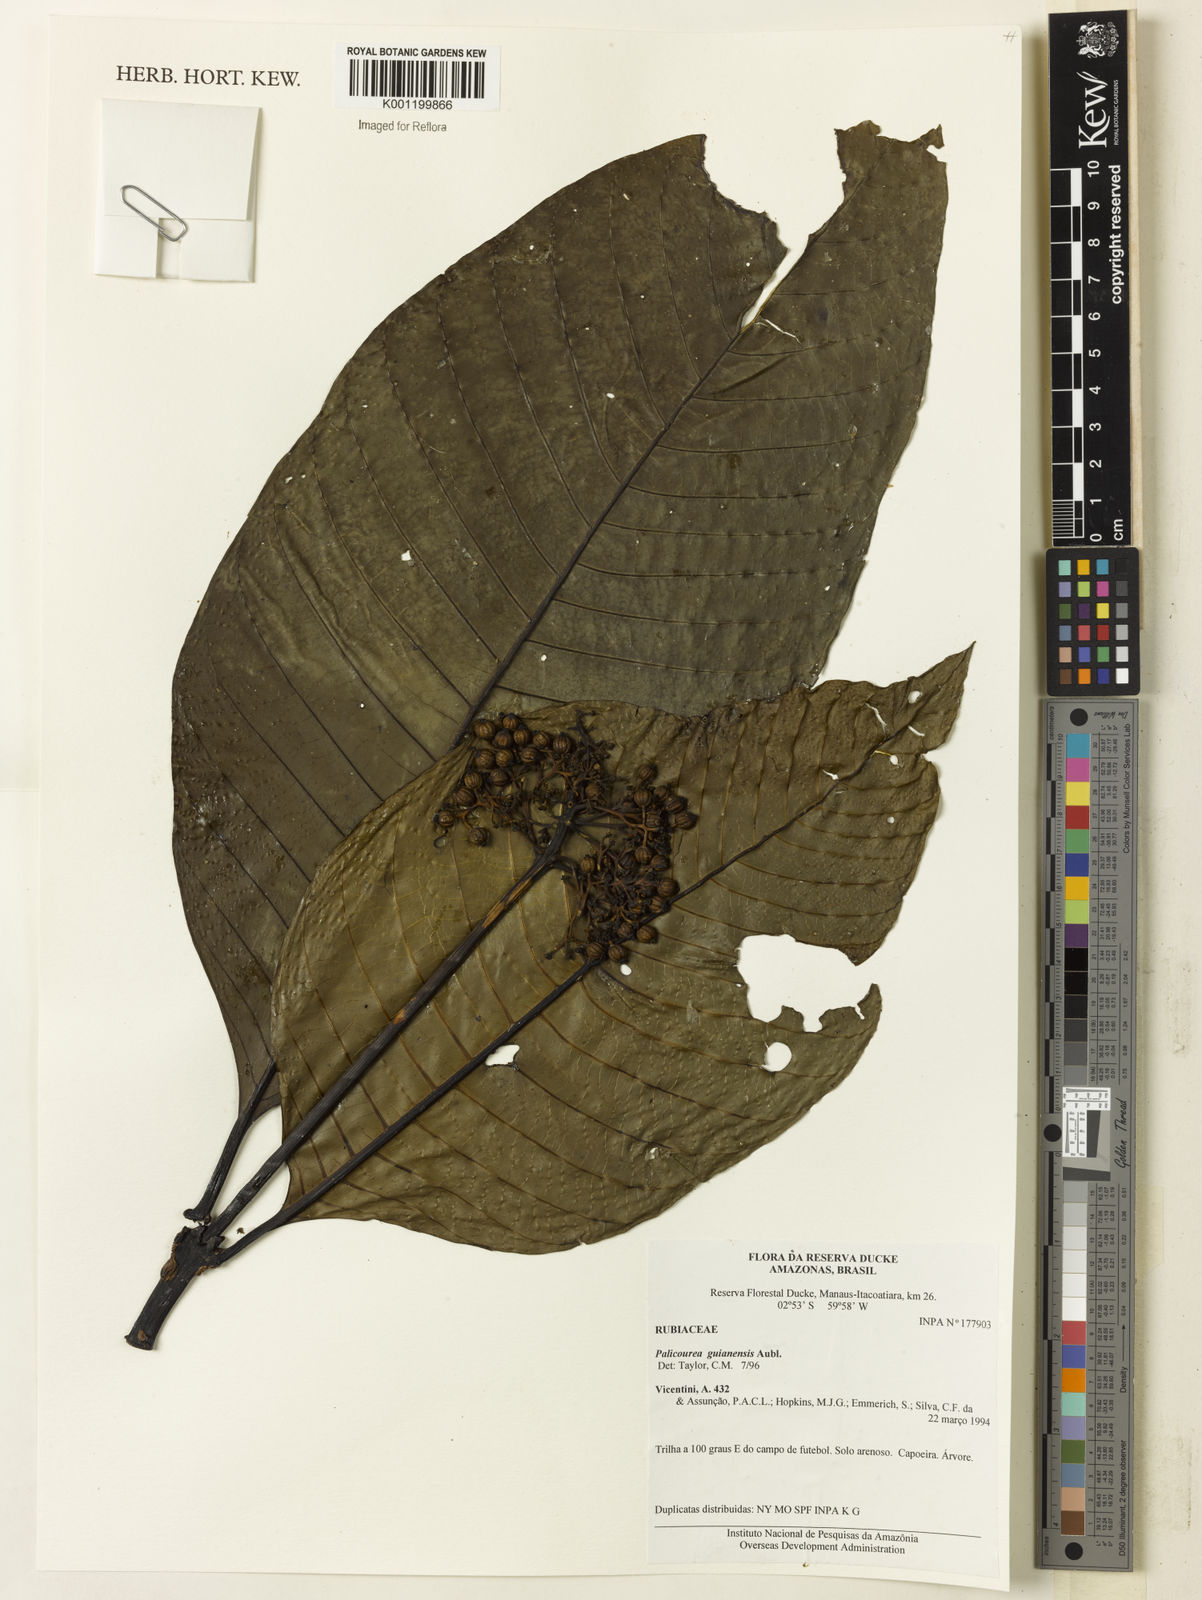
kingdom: Plantae
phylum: Tracheophyta
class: Magnoliopsida
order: Gentianales
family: Rubiaceae
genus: Palicourea
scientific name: Palicourea guianensis
